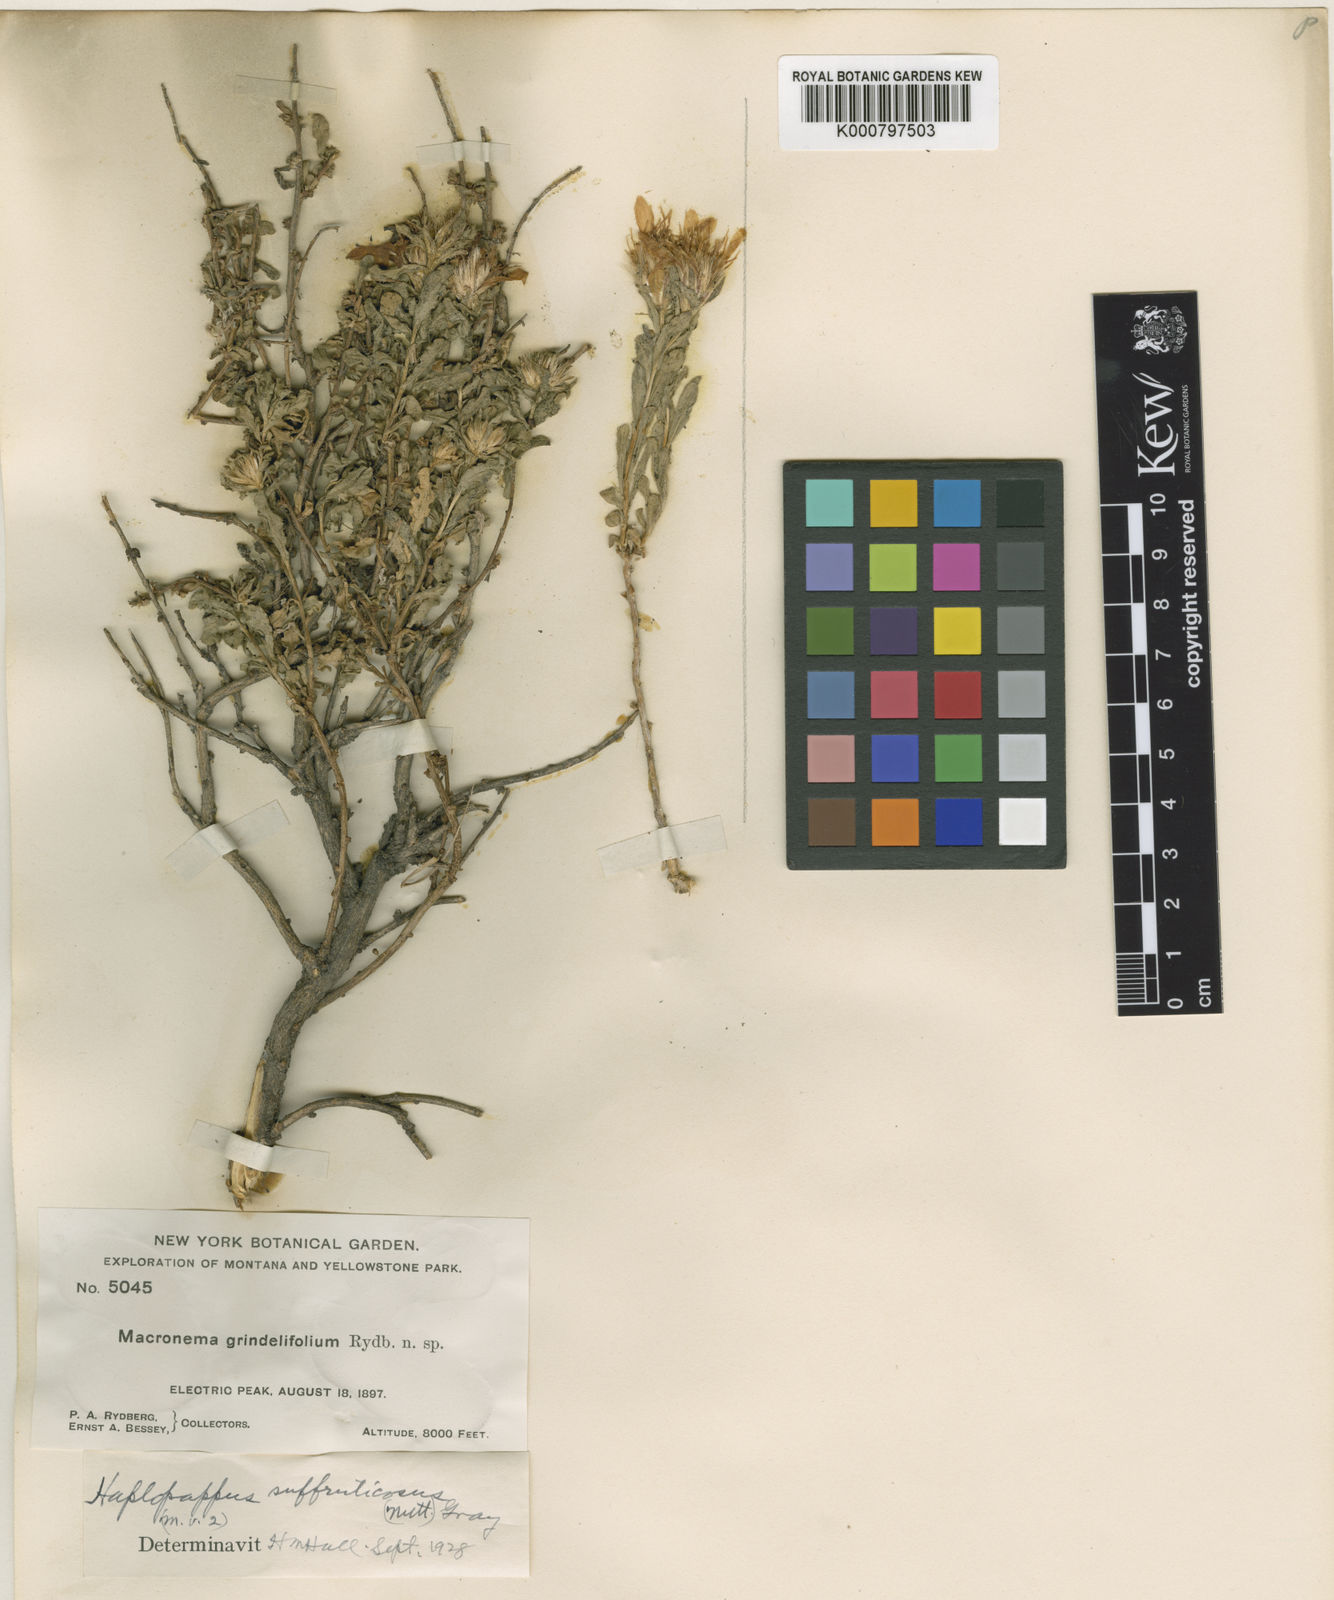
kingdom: Plantae
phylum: Tracheophyta
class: Magnoliopsida
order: Asterales
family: Asteraceae
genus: Ericameria
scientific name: Ericameria suffruticosa
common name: Goldenweed
